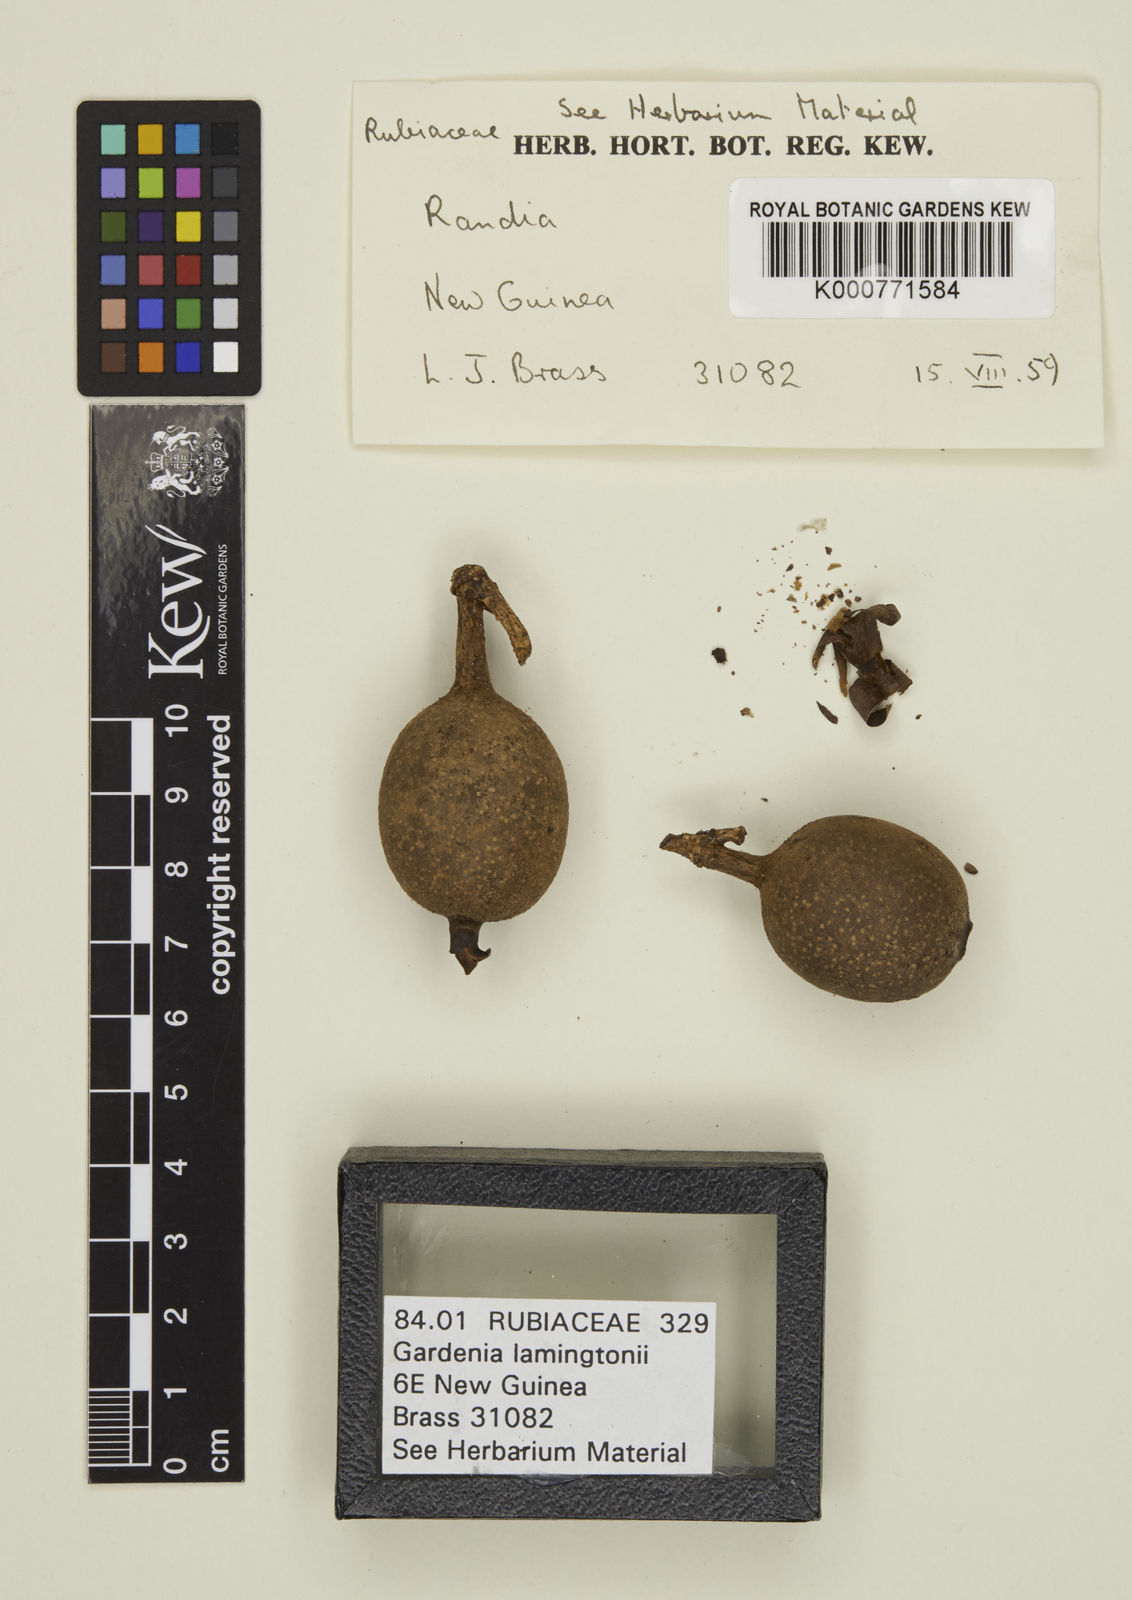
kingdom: Plantae
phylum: Tracheophyta
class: Magnoliopsida
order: Gentianales
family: Rubiaceae
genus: Gardenia
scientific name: Gardenia lamingtonii
